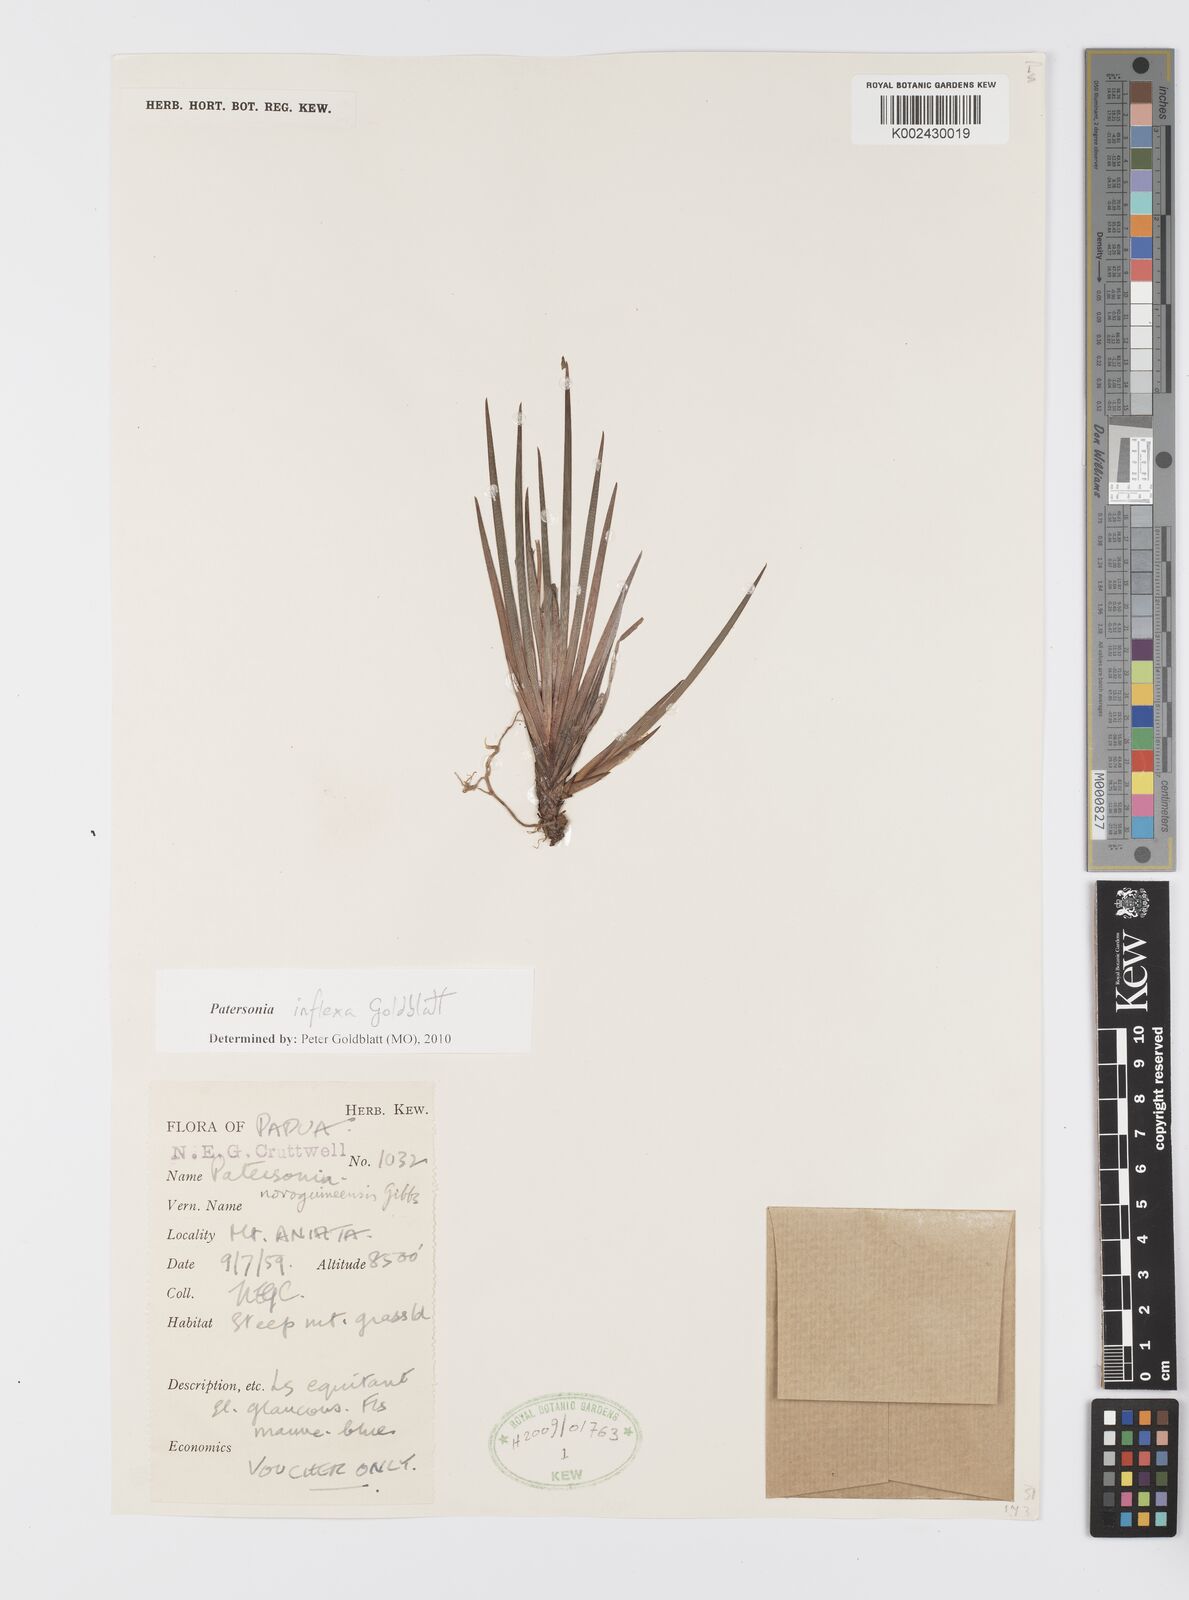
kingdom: Plantae
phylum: Tracheophyta
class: Liliopsida
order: Asparagales
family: Iridaceae
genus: Patersonia
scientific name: Patersonia novoguineensis
